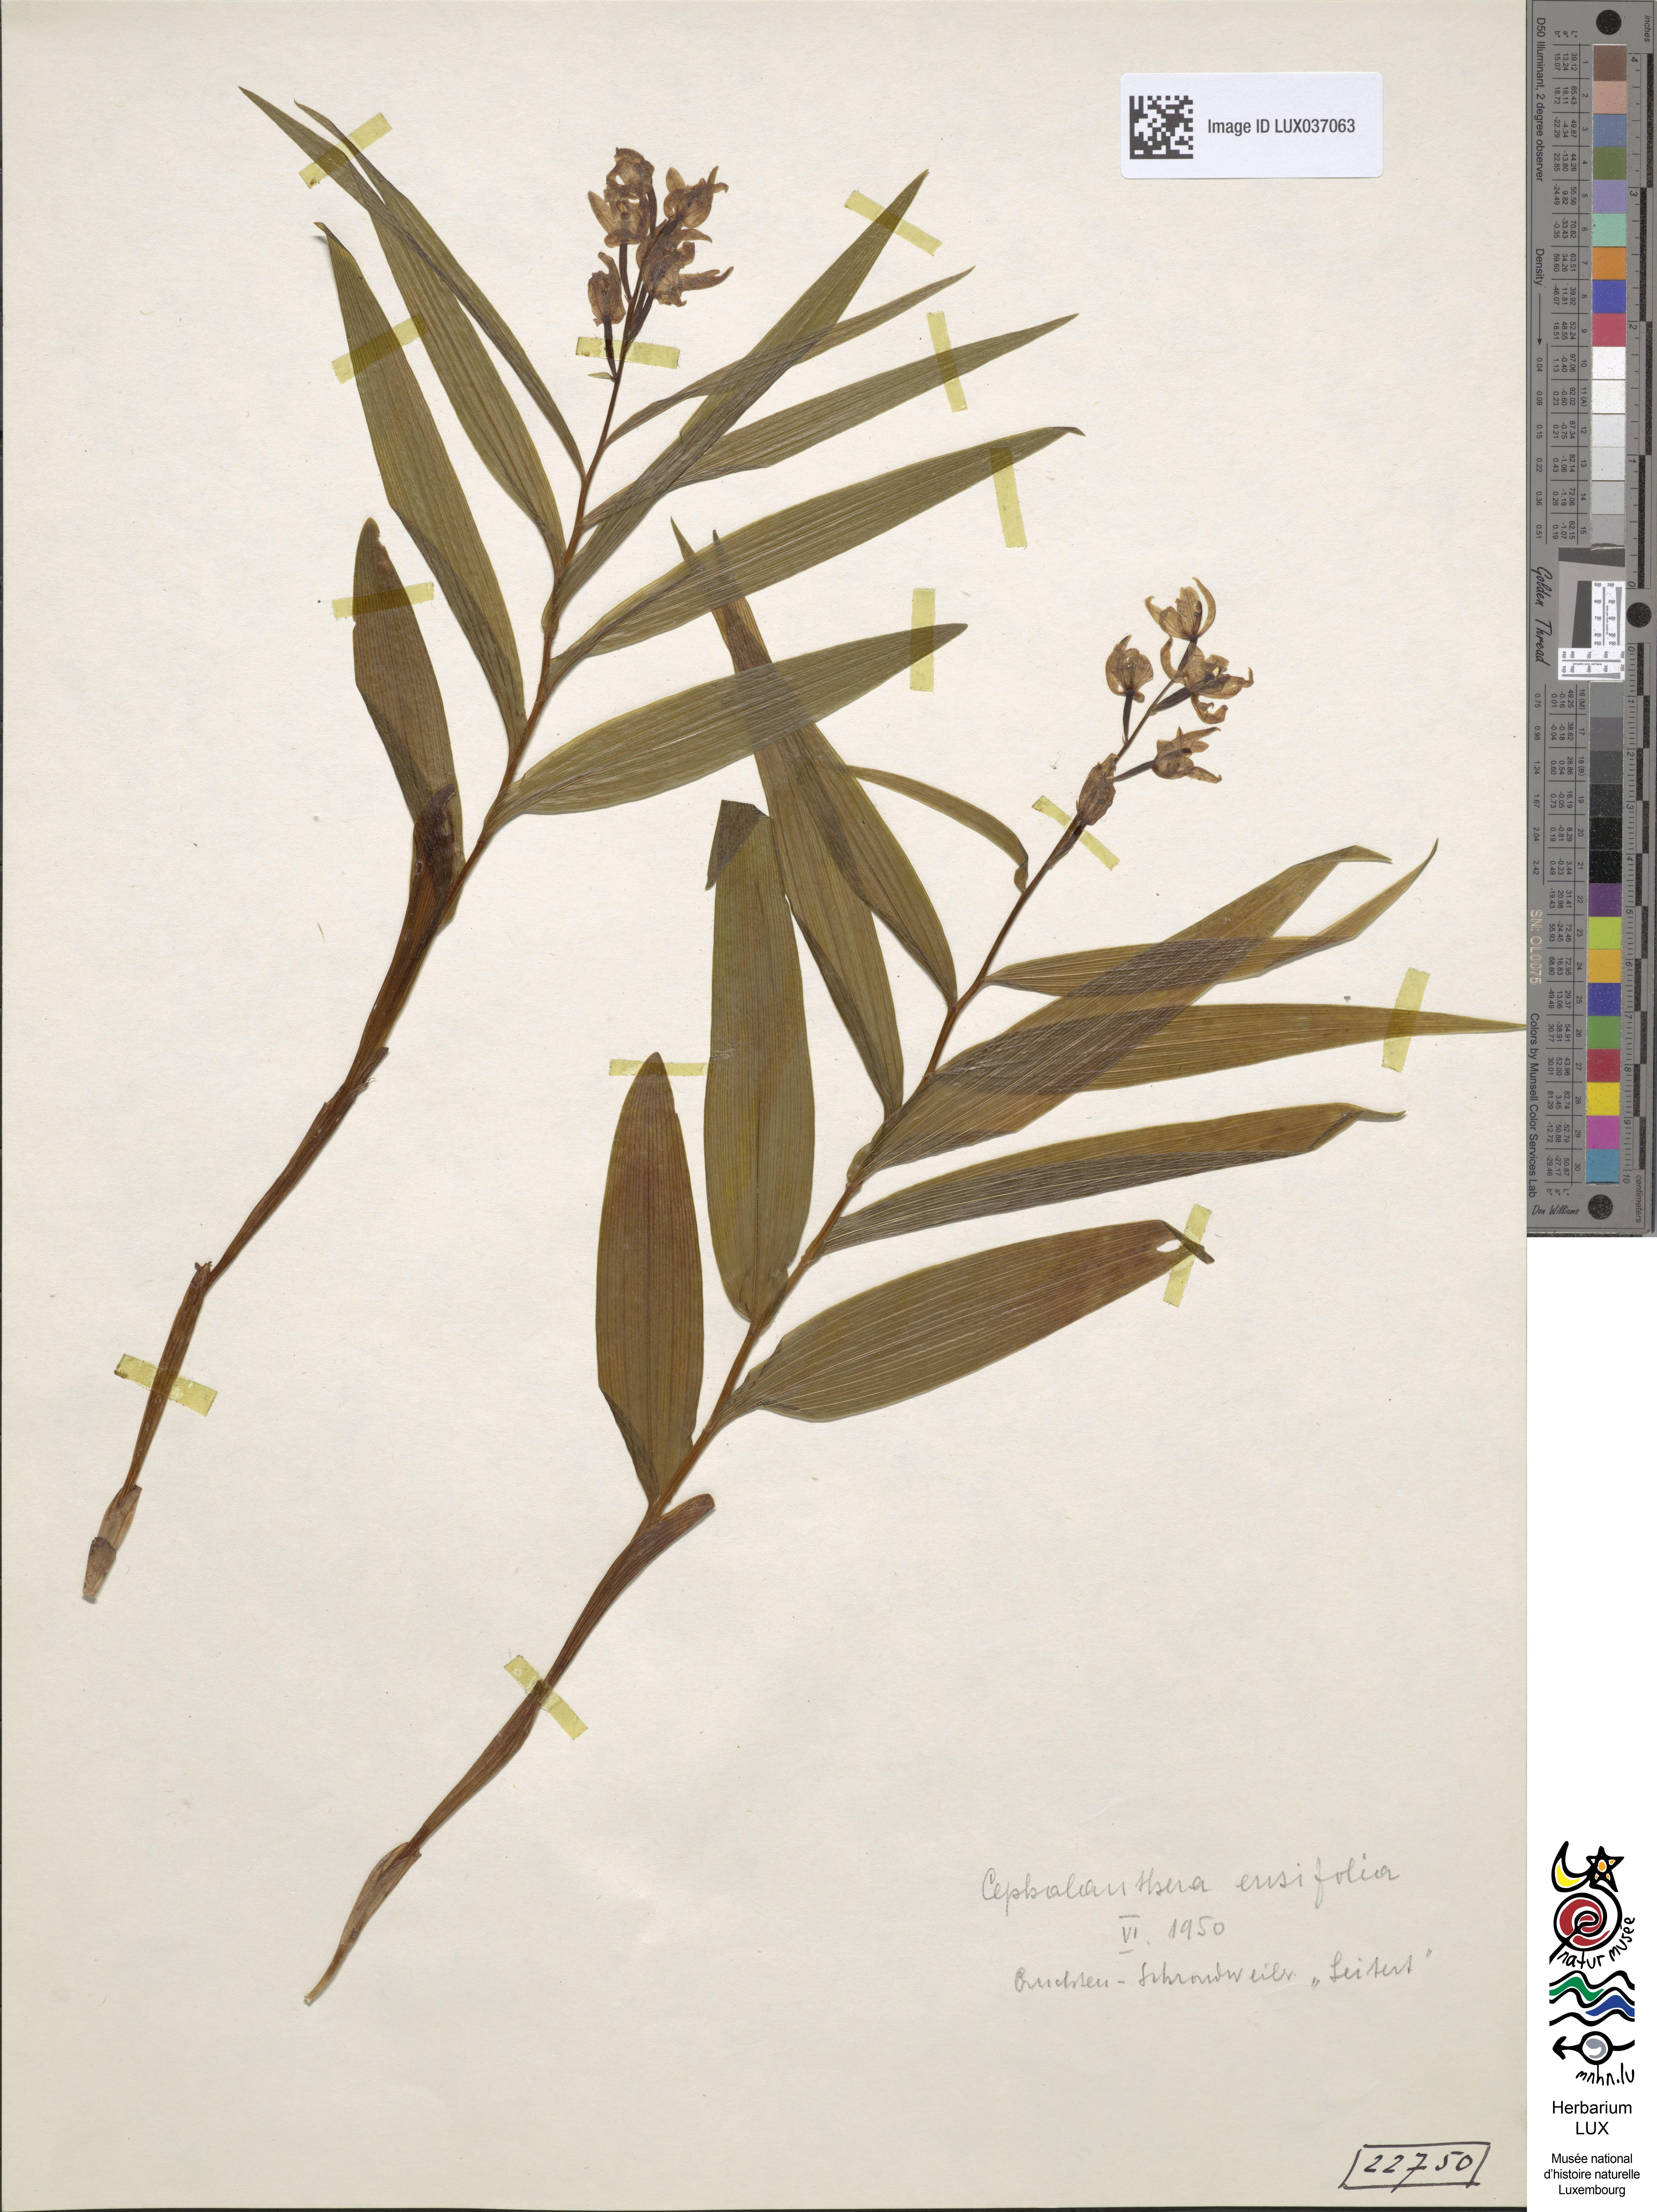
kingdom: Plantae
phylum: Tracheophyta
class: Liliopsida
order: Asparagales
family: Orchidaceae
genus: Cephalanthera
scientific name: Cephalanthera longifolia
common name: Narrow-leaved helleborine
